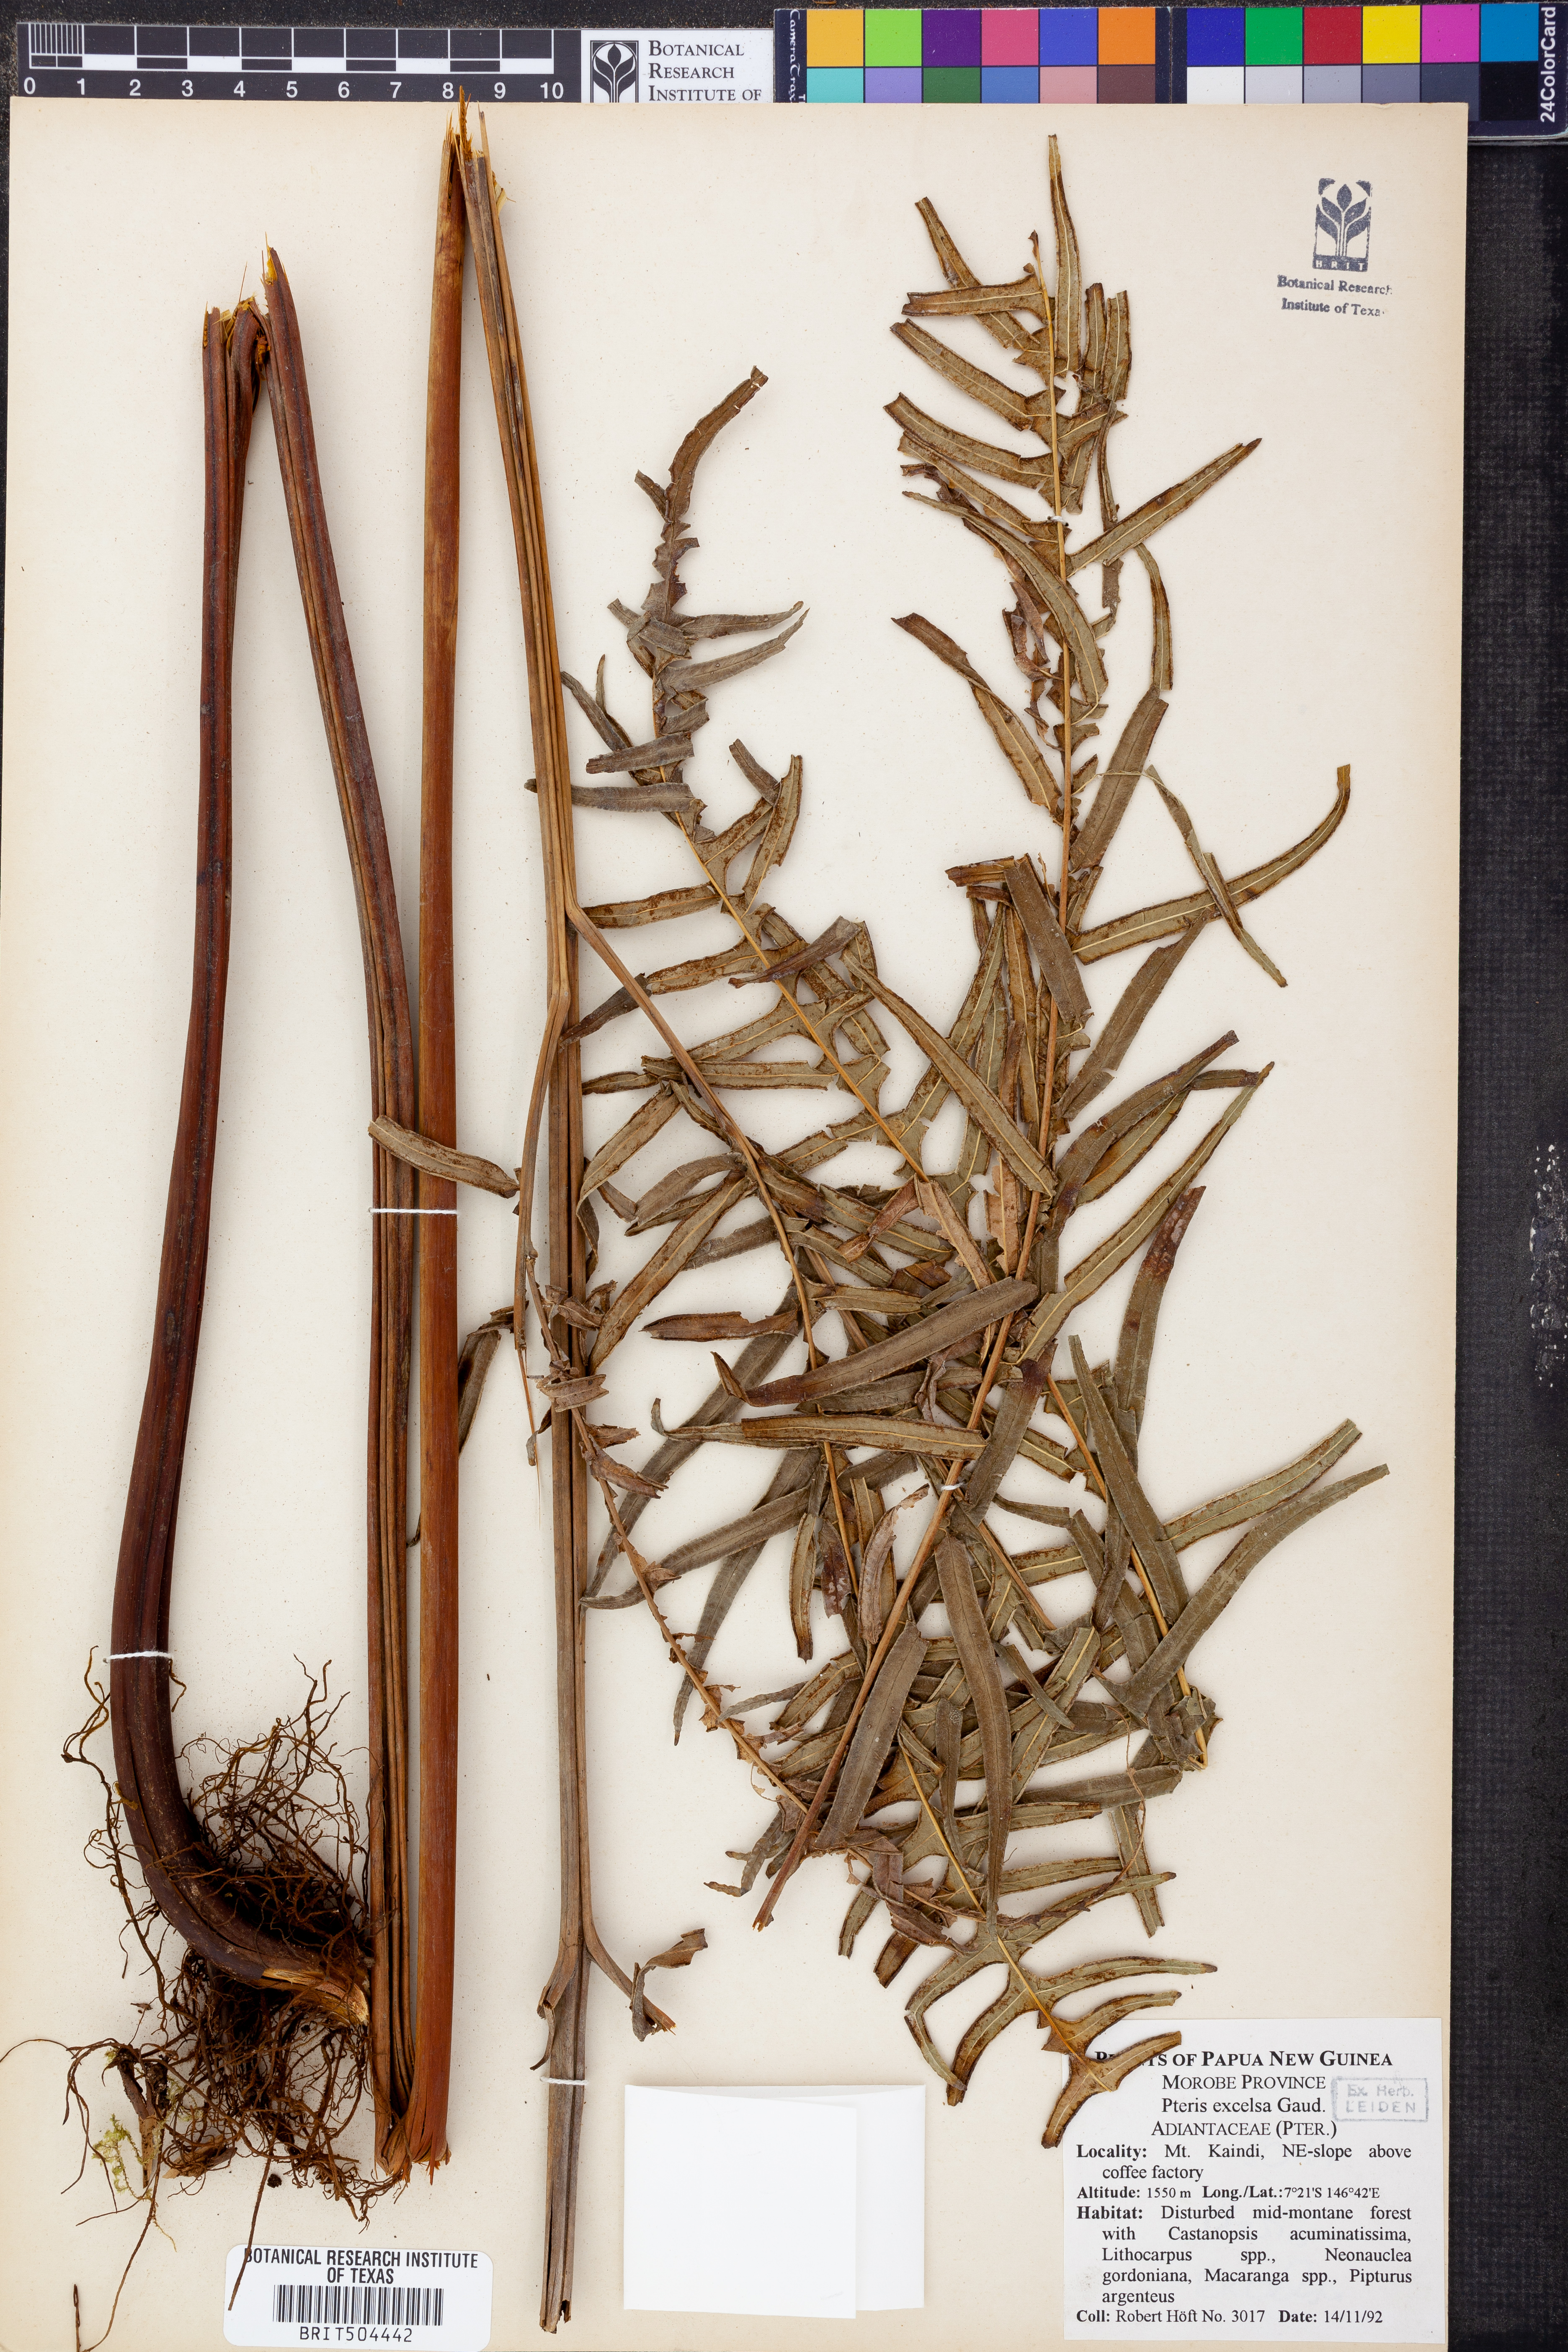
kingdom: Plantae
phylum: Tracheophyta
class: Polypodiopsida
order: Polypodiales
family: Pteridaceae
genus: Pteris
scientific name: Pteris terminalis
